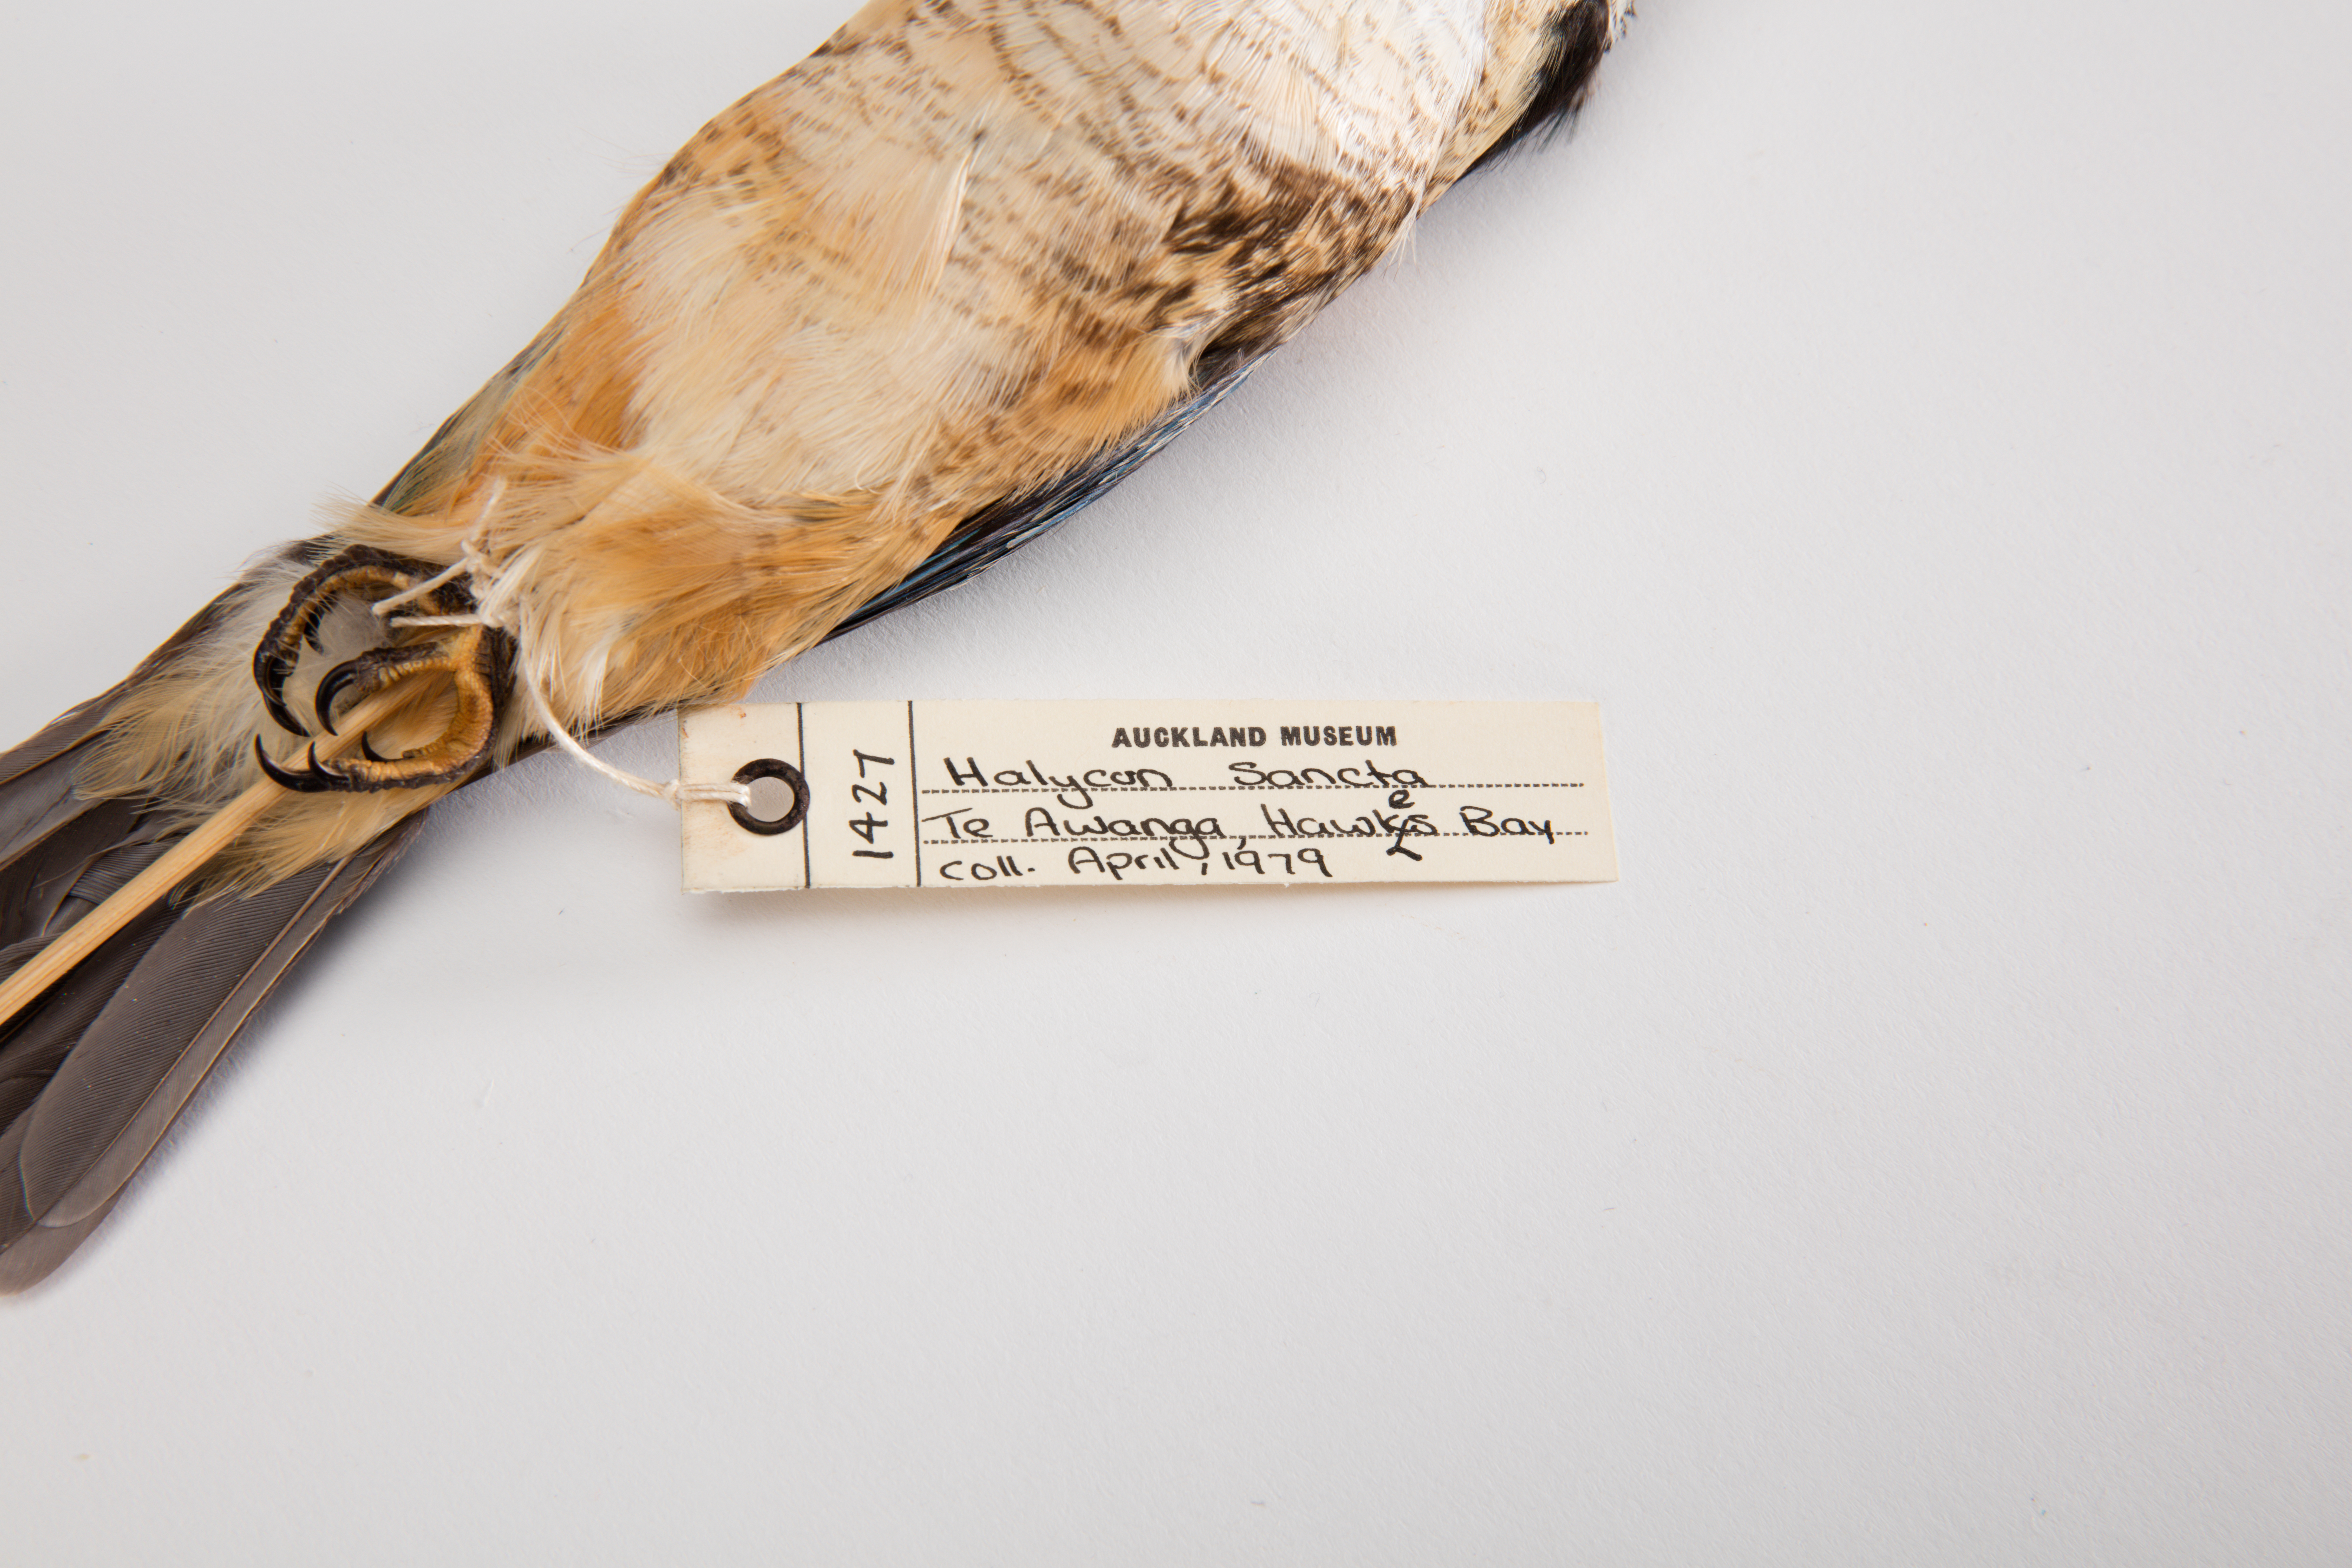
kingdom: Animalia
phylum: Chordata
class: Aves
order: Coraciiformes
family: Alcedinidae
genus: Todiramphus
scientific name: Todiramphus sanctus
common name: Sacred kingfisher
